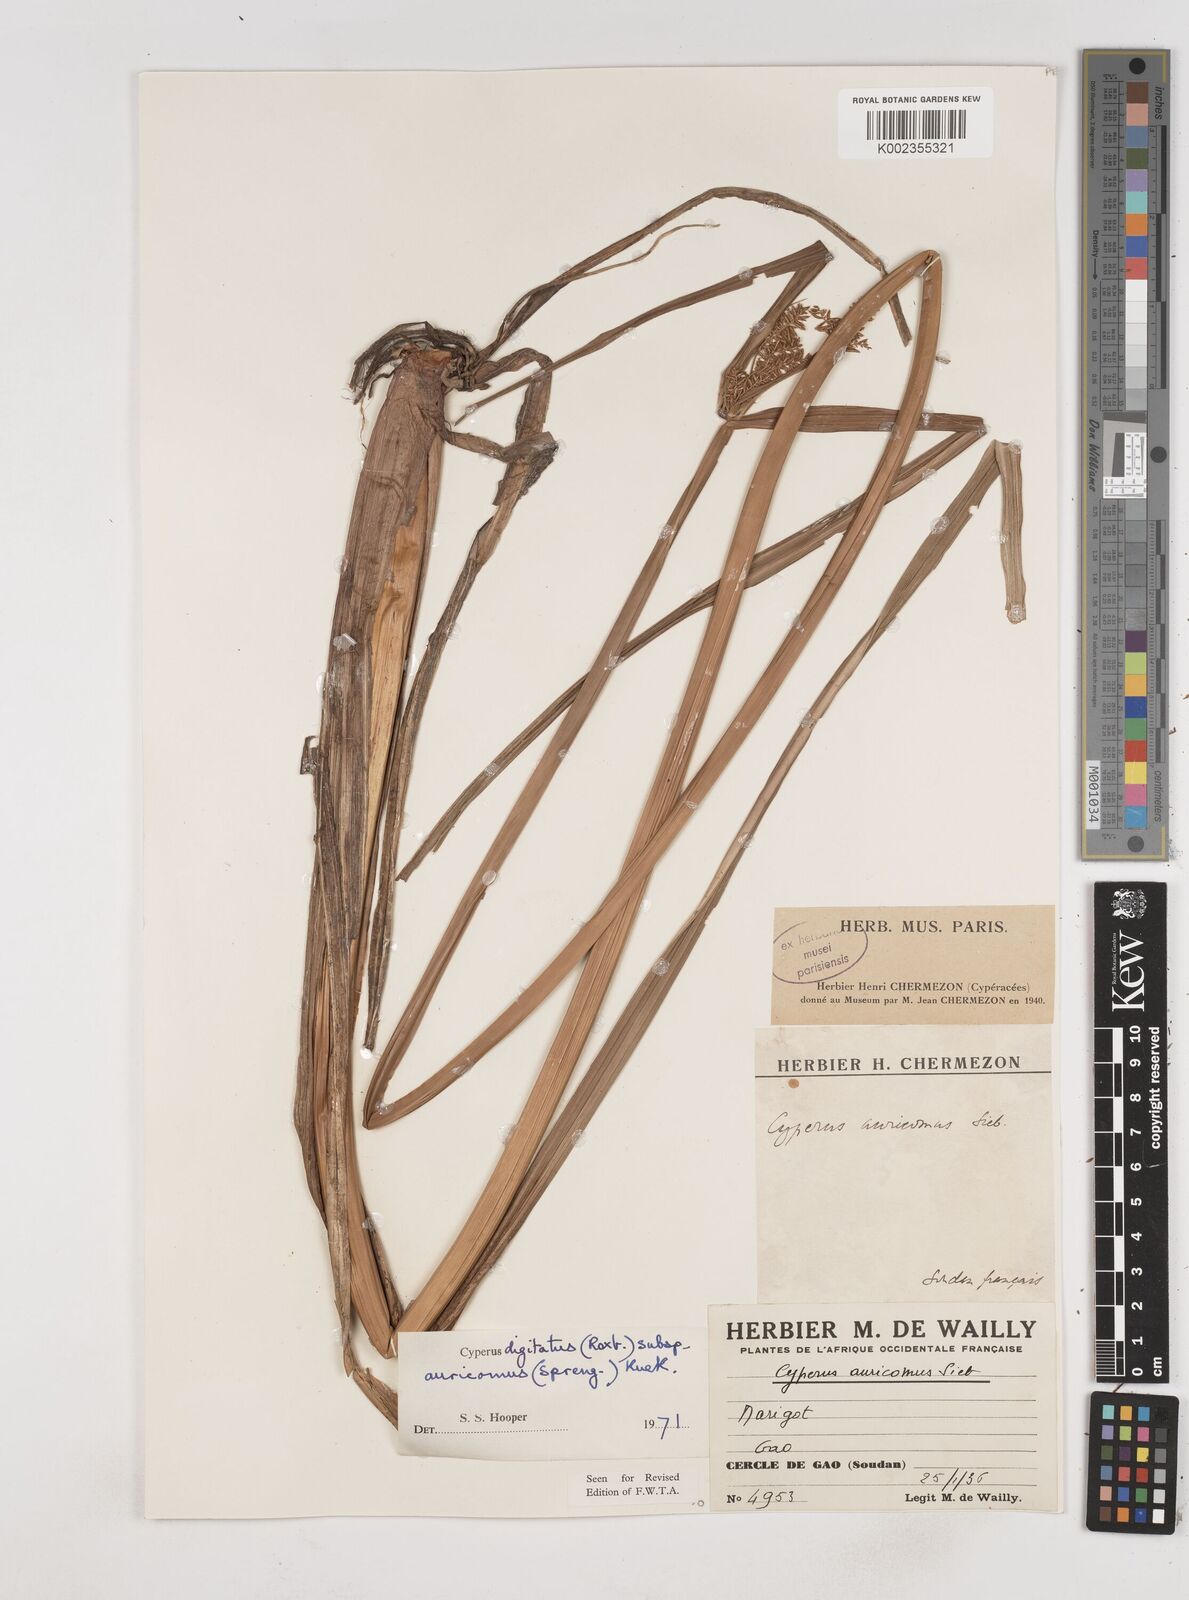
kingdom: Plantae
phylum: Tracheophyta
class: Liliopsida
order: Poales
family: Cyperaceae
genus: Cyperus
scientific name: Cyperus digitatus
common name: Finger flatsedge
